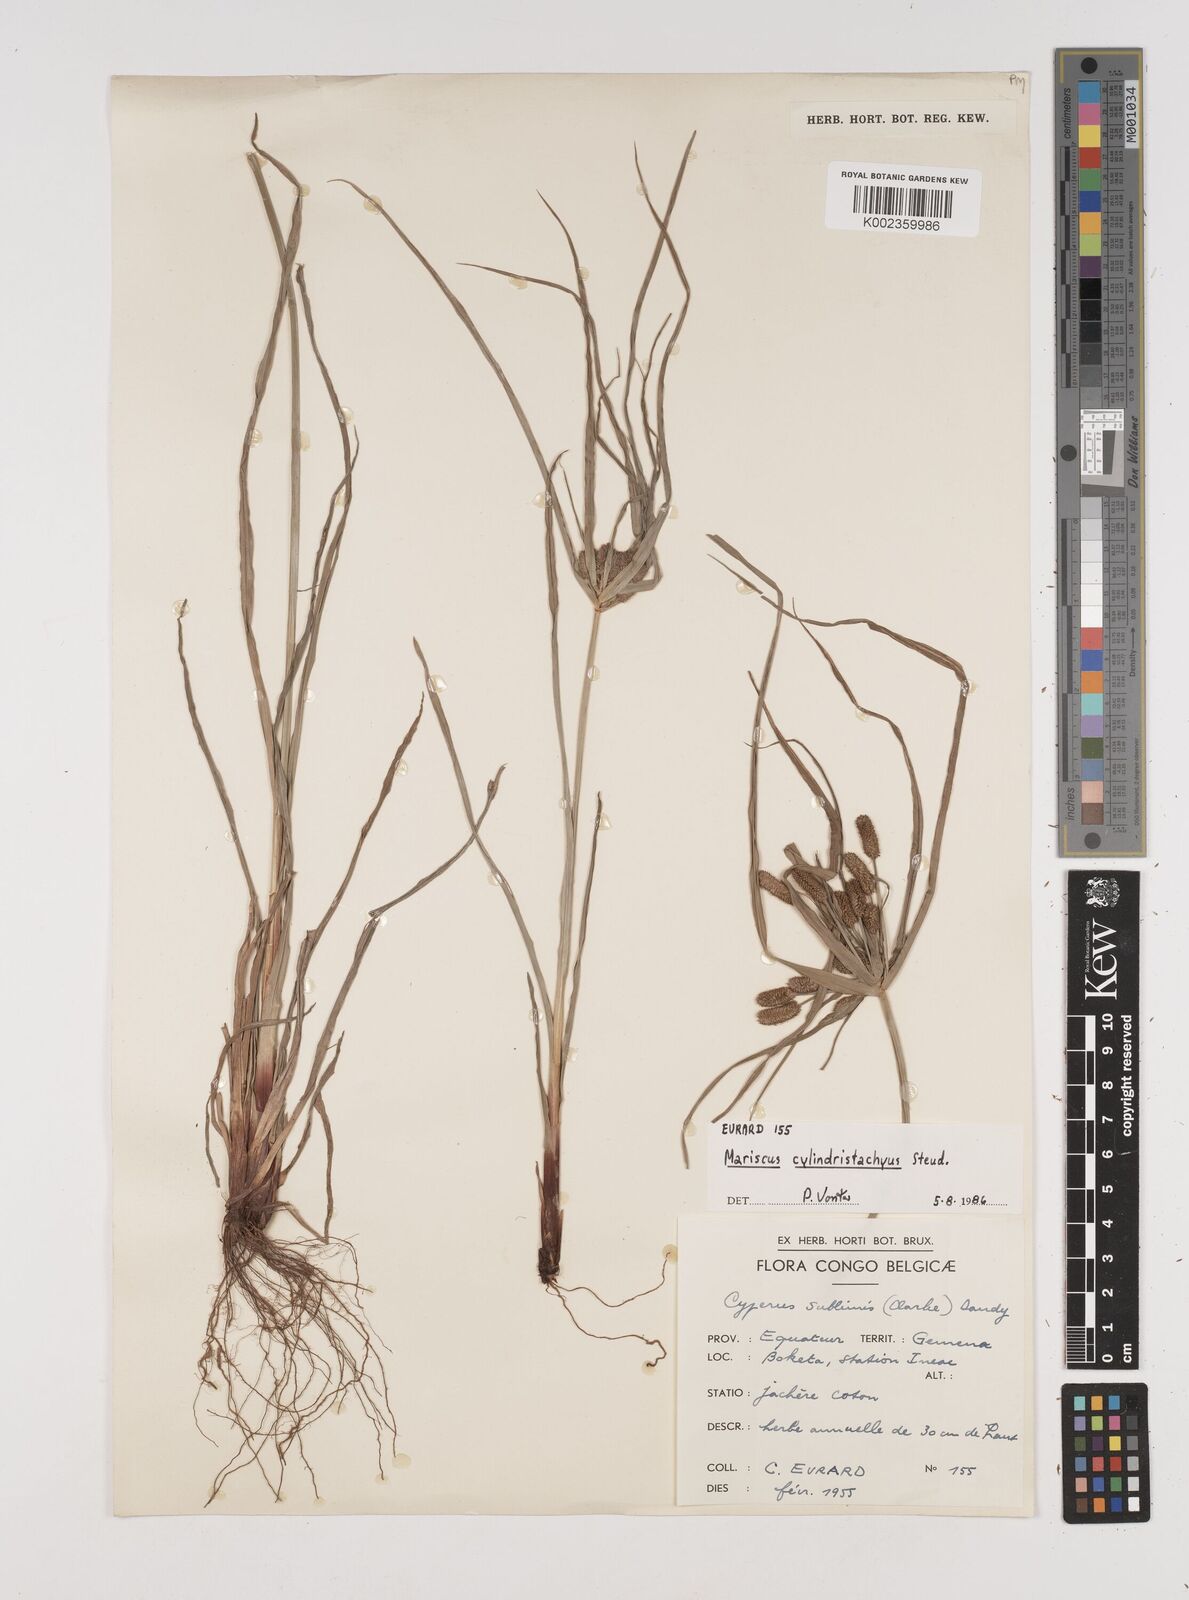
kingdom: Plantae
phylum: Tracheophyta
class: Liliopsida
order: Poales
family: Cyperaceae
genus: Cyperus
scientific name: Cyperus cyperoides
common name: Pacific island flat sedge
